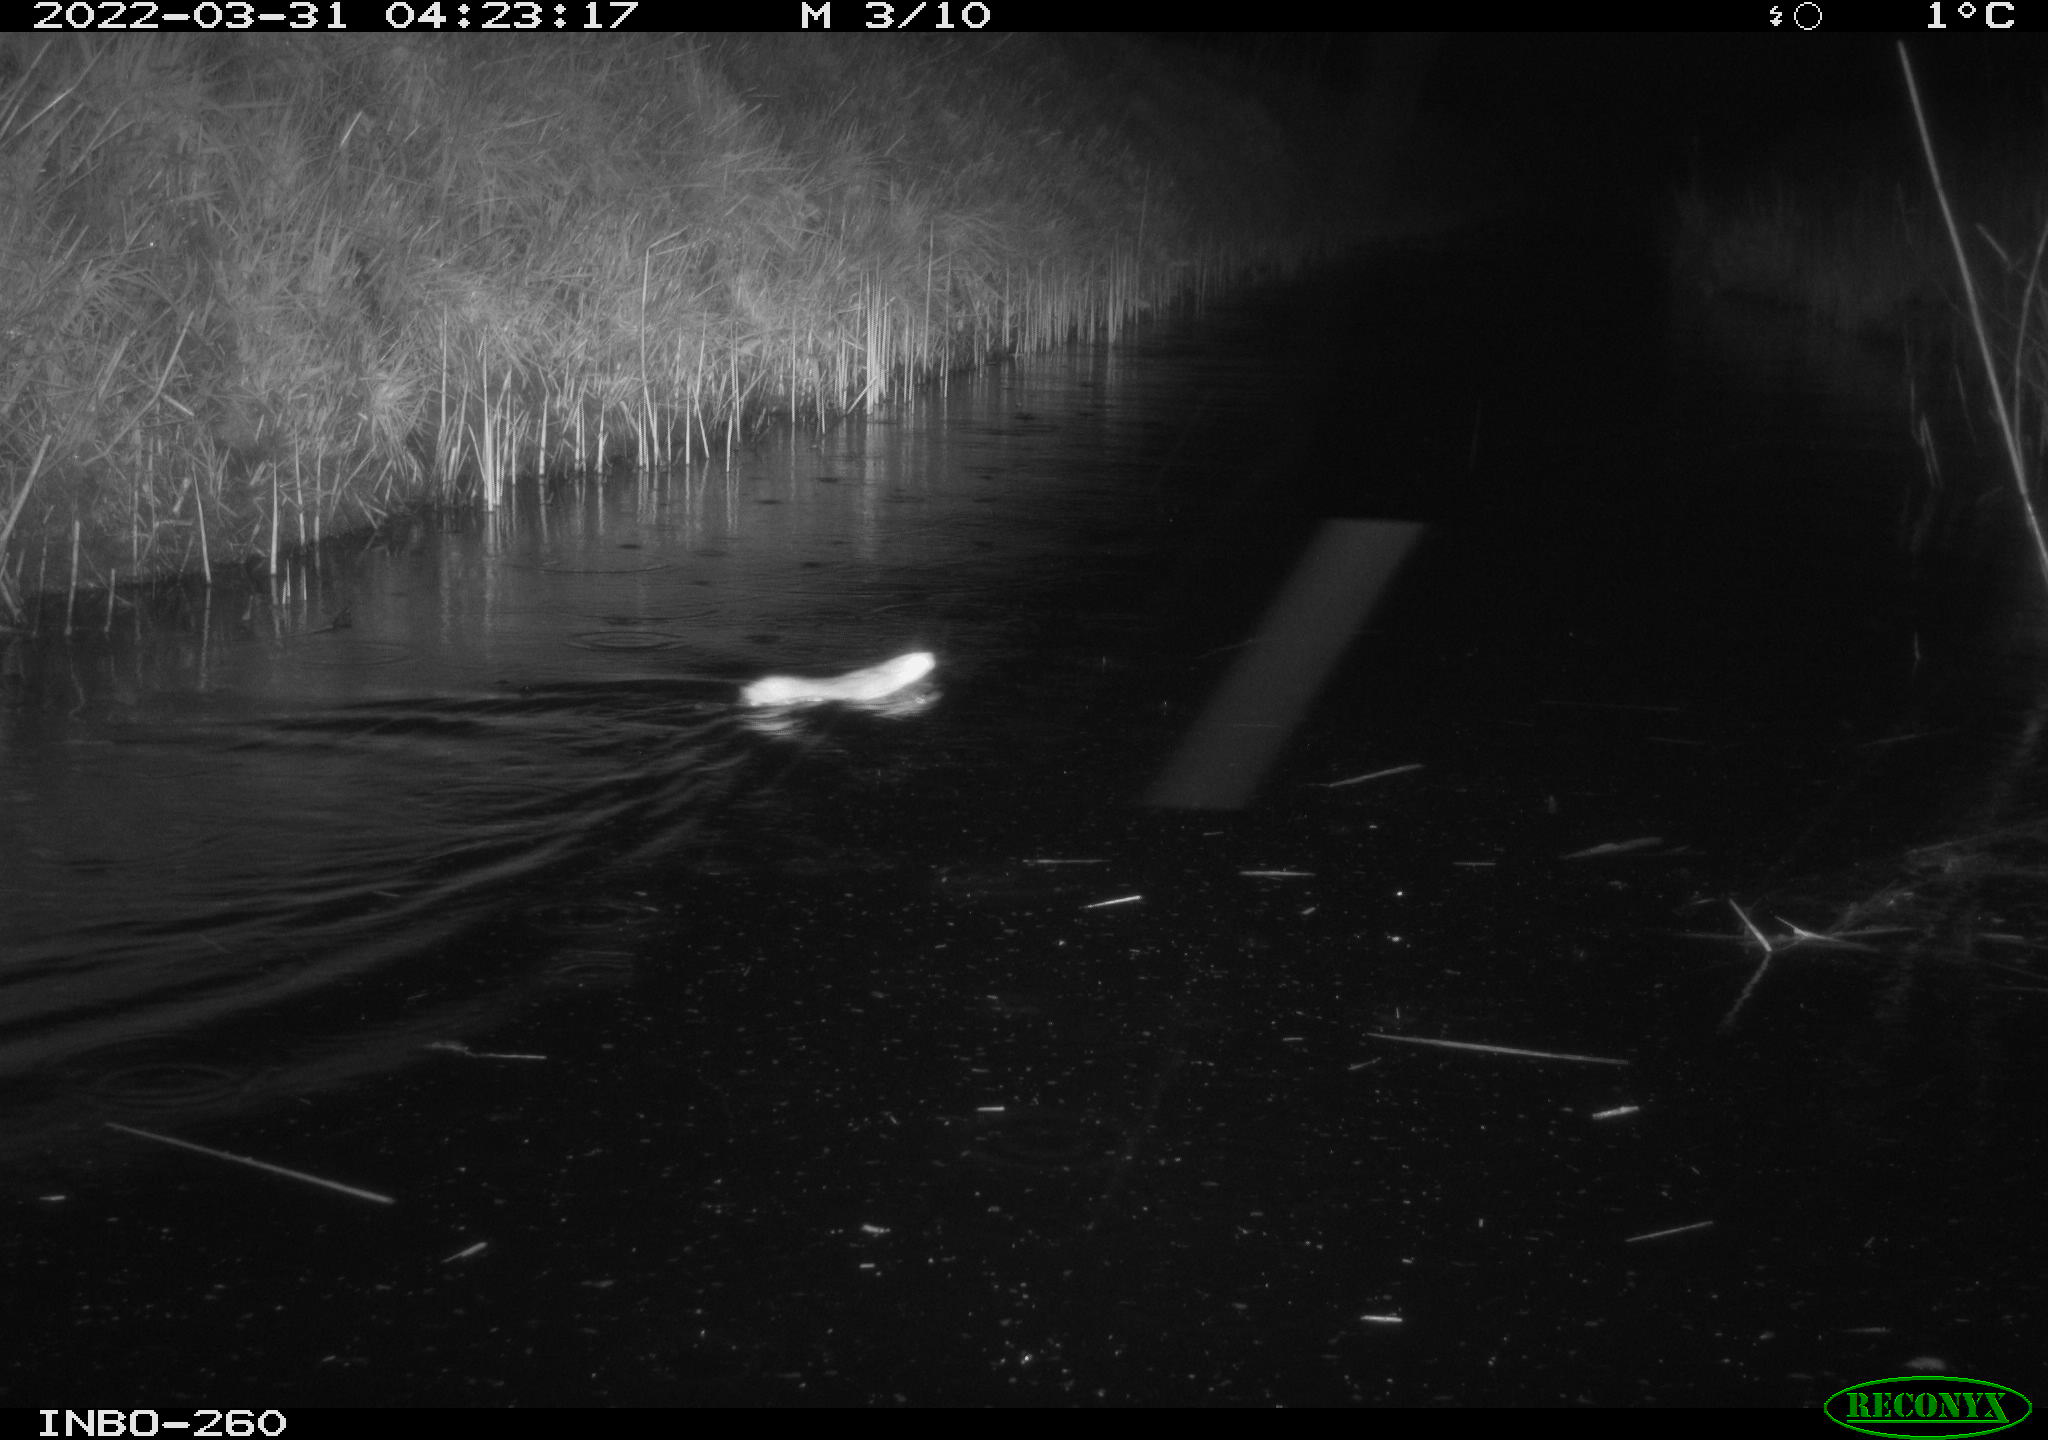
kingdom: Animalia
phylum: Chordata
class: Mammalia
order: Rodentia
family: Muridae
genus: Rattus
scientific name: Rattus norvegicus
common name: Brown rat
